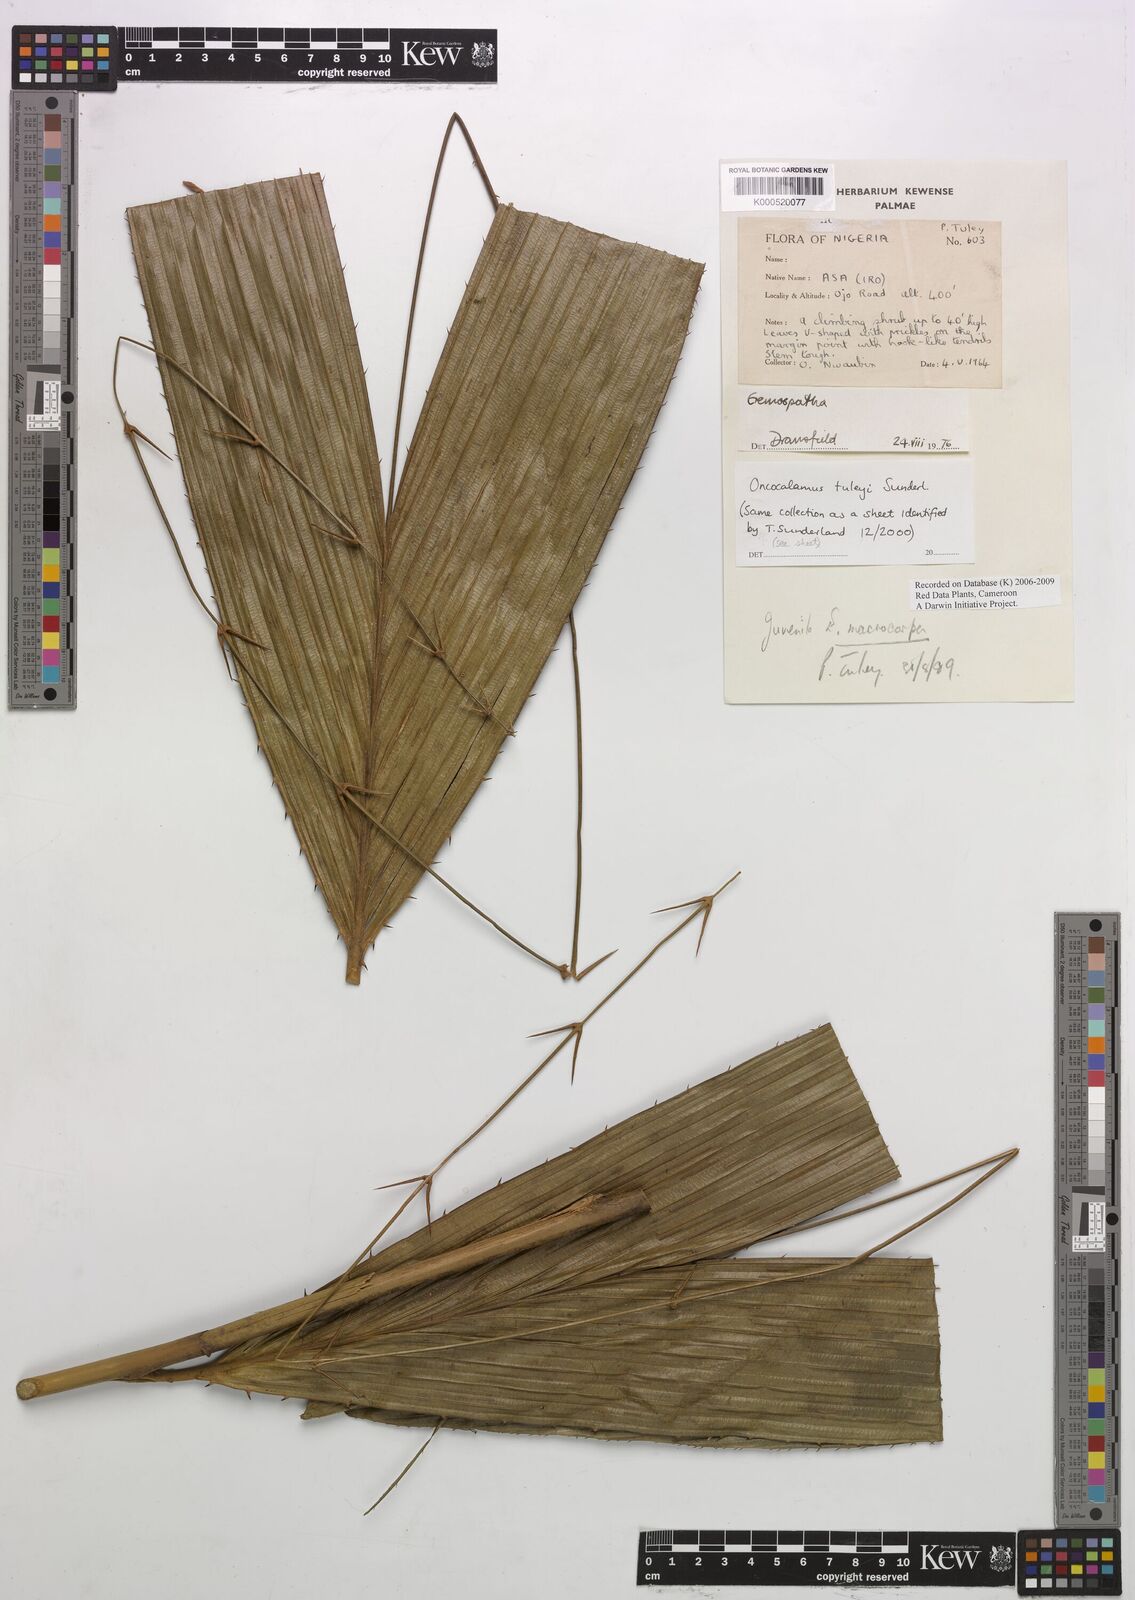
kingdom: Plantae
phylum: Tracheophyta
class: Liliopsida
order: Arecales
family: Arecaceae
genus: Oncocalamus
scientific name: Oncocalamus tuleyi
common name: Rattan
